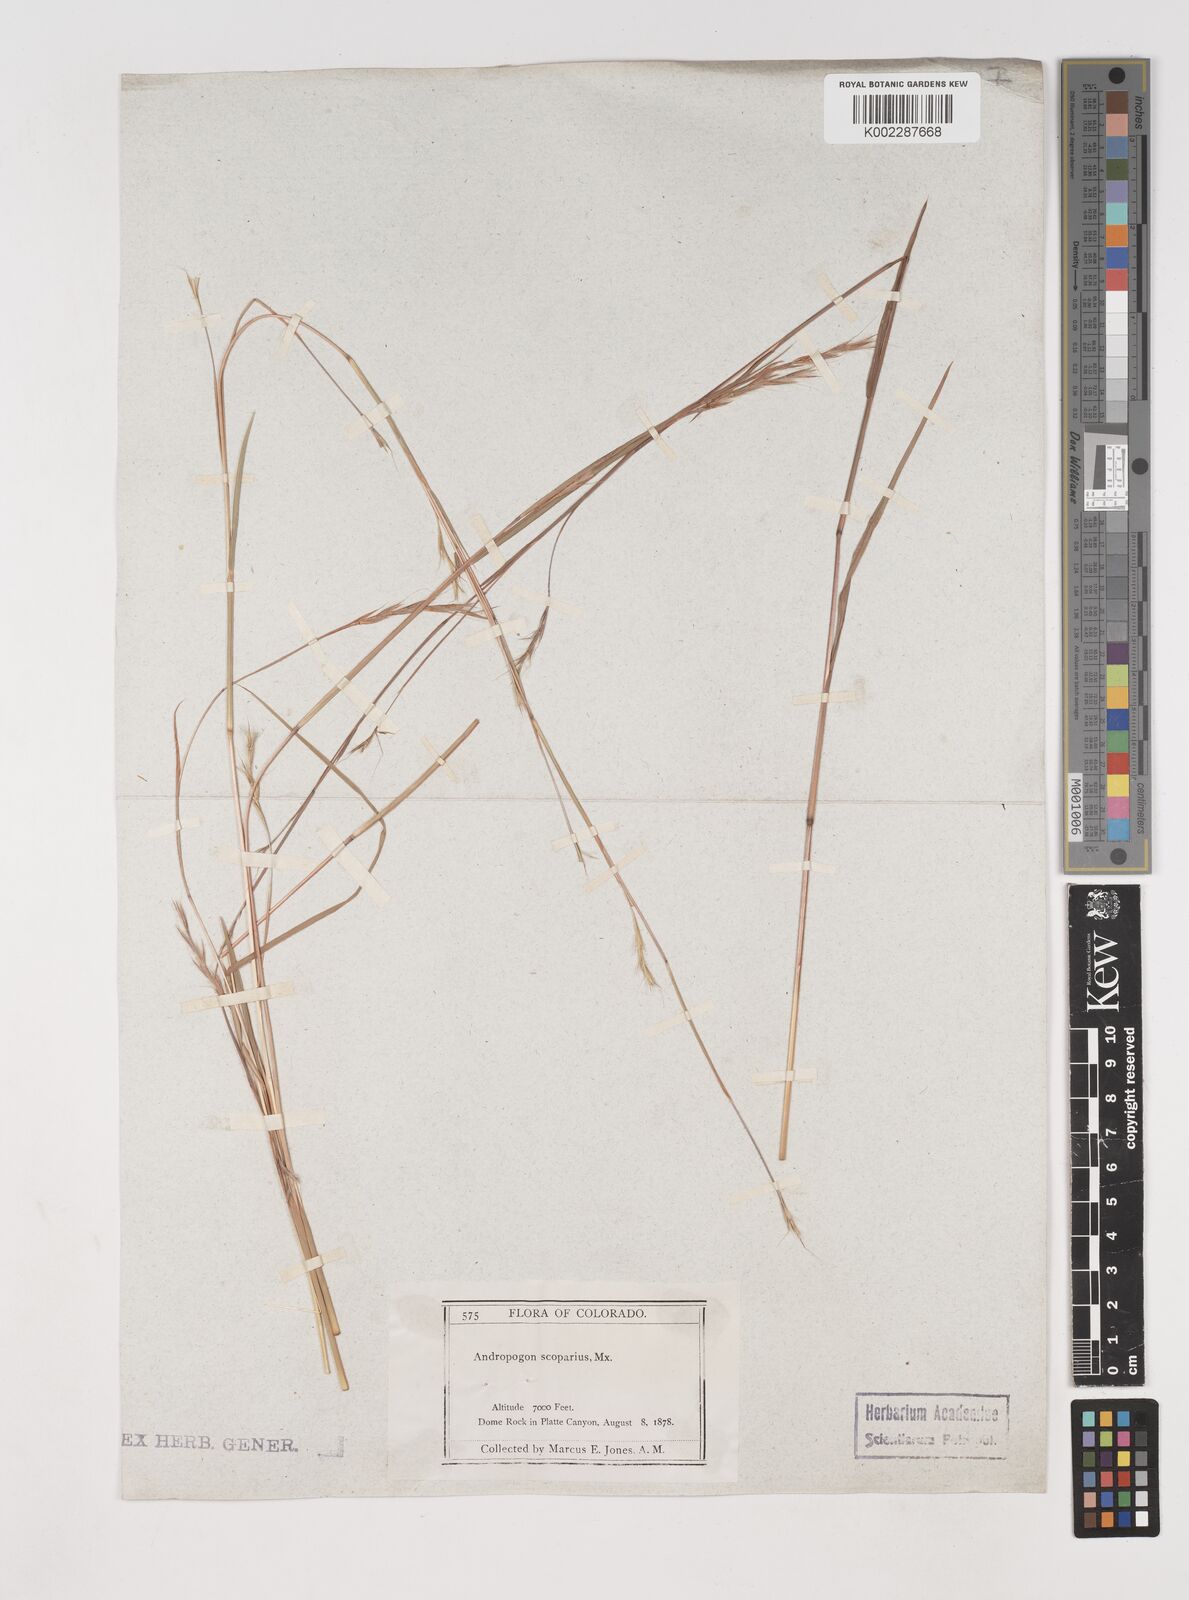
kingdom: Plantae
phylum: Tracheophyta
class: Liliopsida
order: Poales
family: Poaceae
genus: Schizachyrium
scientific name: Schizachyrium scoparium
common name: Little bluestem
